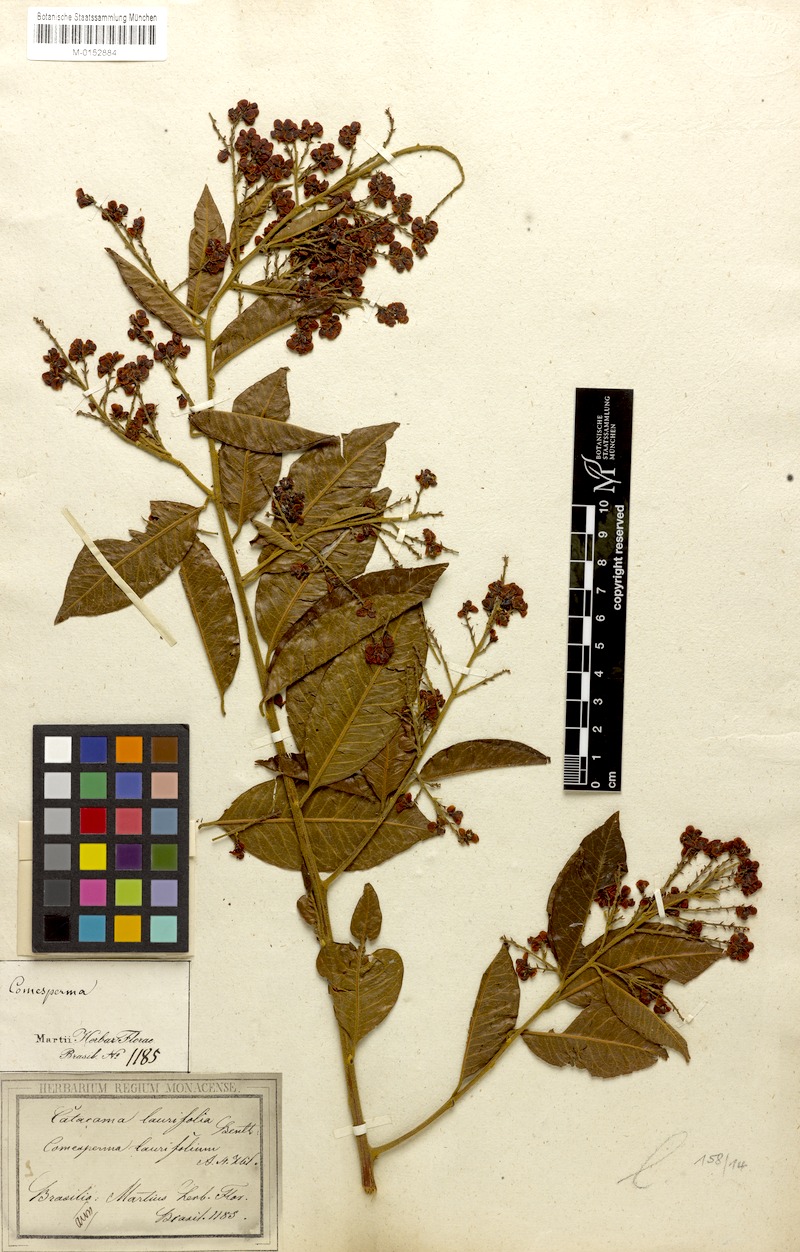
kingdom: Plantae
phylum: Tracheophyta
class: Magnoliopsida
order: Fabales
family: Polygalaceae
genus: Bredemeyera
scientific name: Bredemeyera laurifolia
